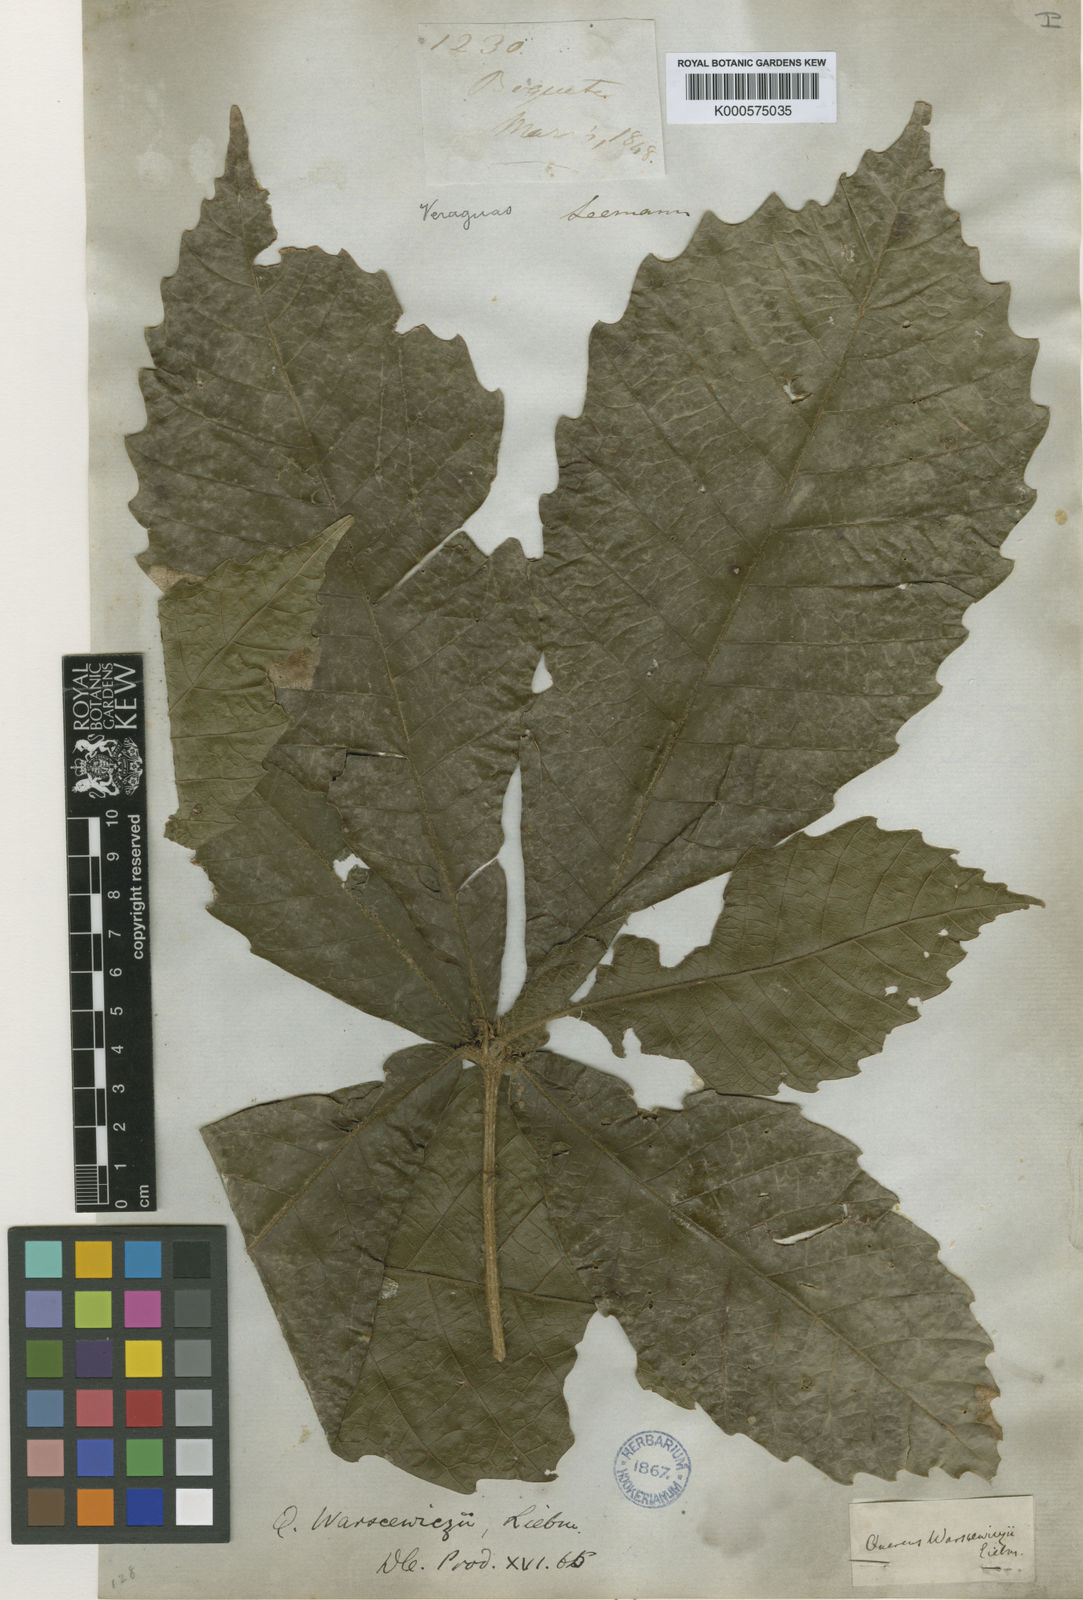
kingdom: Plantae
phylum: Tracheophyta
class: Magnoliopsida
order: Fagales
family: Fagaceae
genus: Quercus
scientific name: Quercus oocarpa
